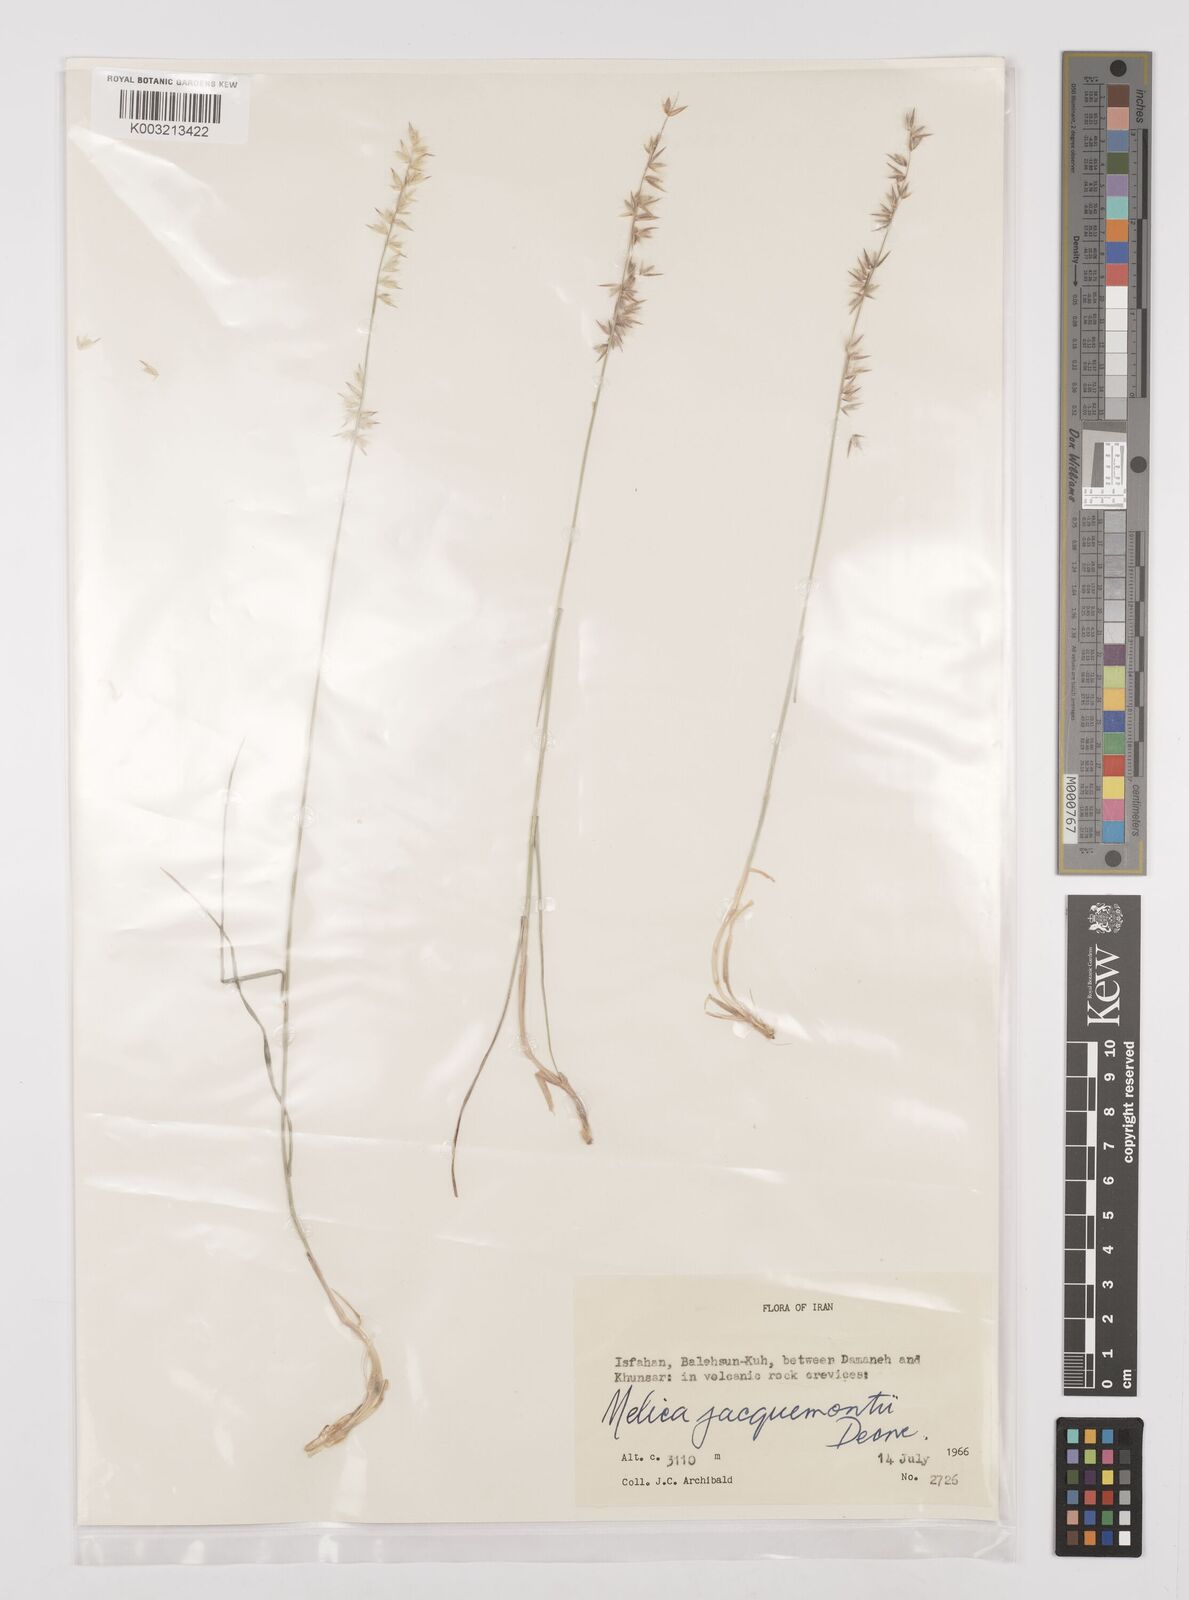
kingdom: Plantae
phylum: Tracheophyta
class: Liliopsida
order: Poales
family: Poaceae
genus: Melica
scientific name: Melica persica
